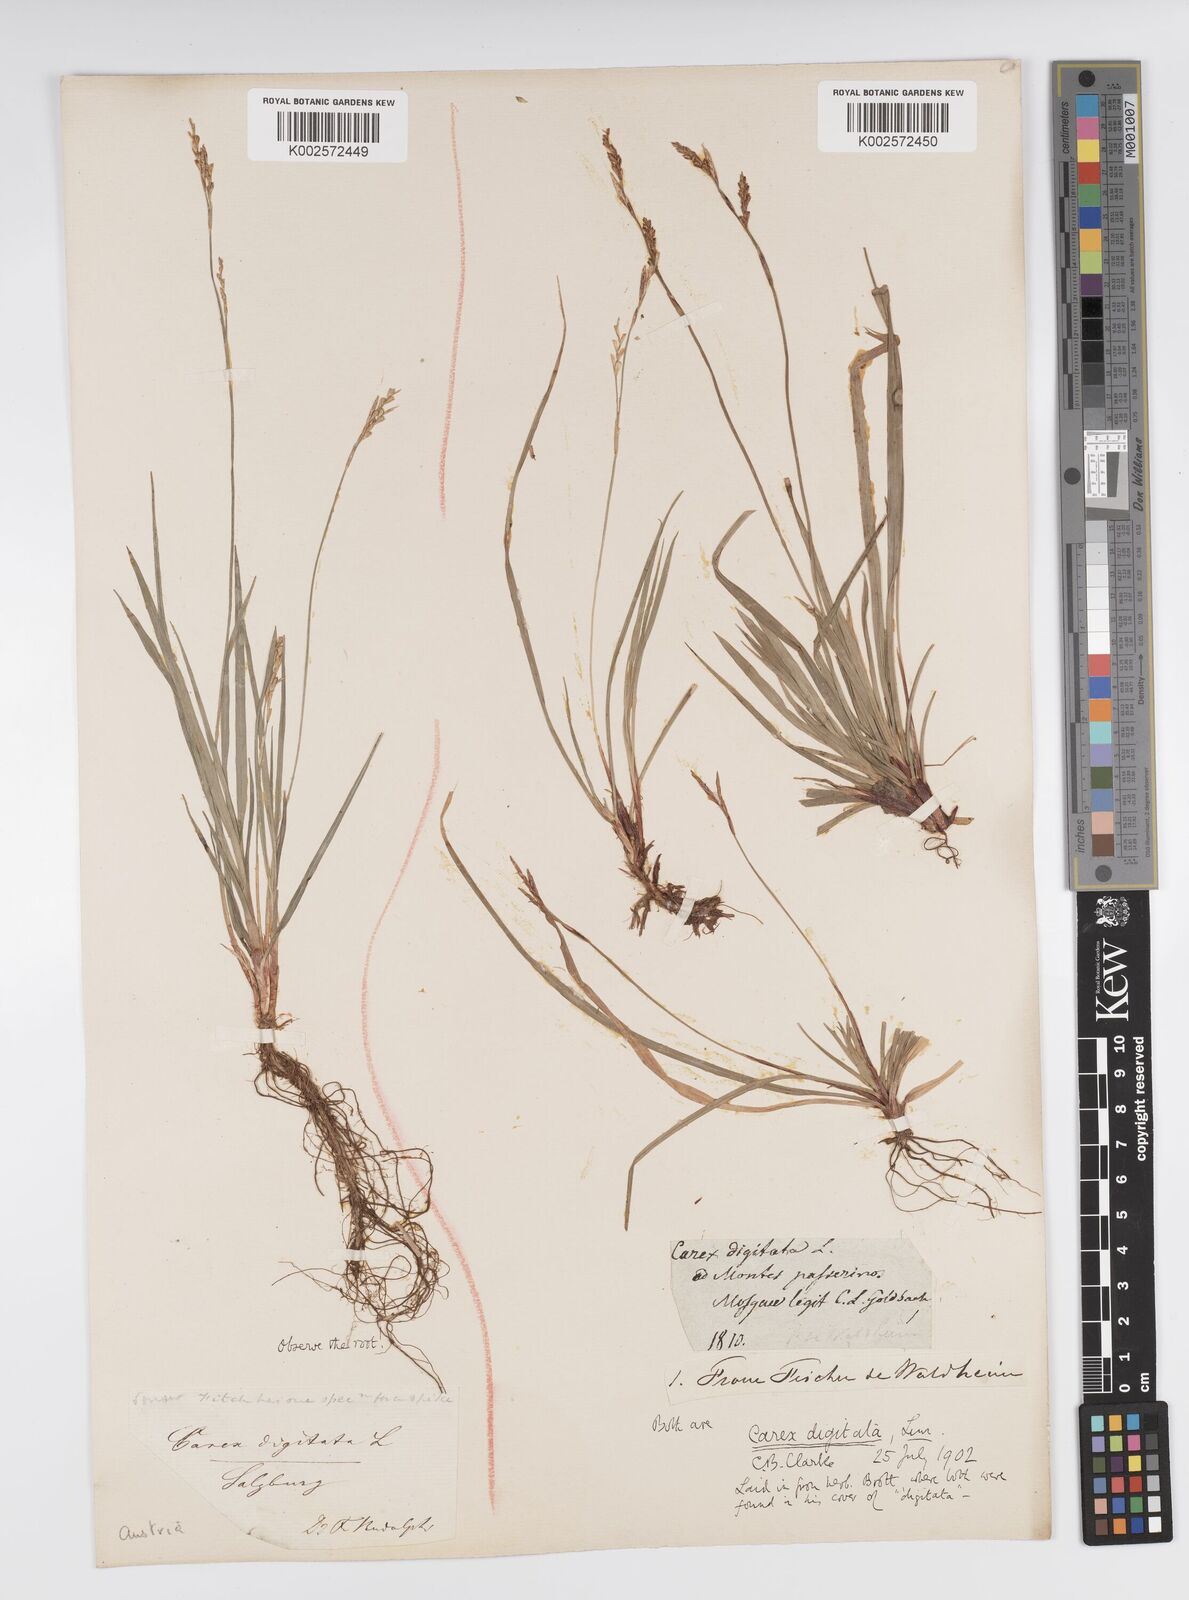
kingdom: Plantae
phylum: Tracheophyta
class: Liliopsida
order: Poales
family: Cyperaceae
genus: Carex
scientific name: Carex digitata
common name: Fingered sedge
